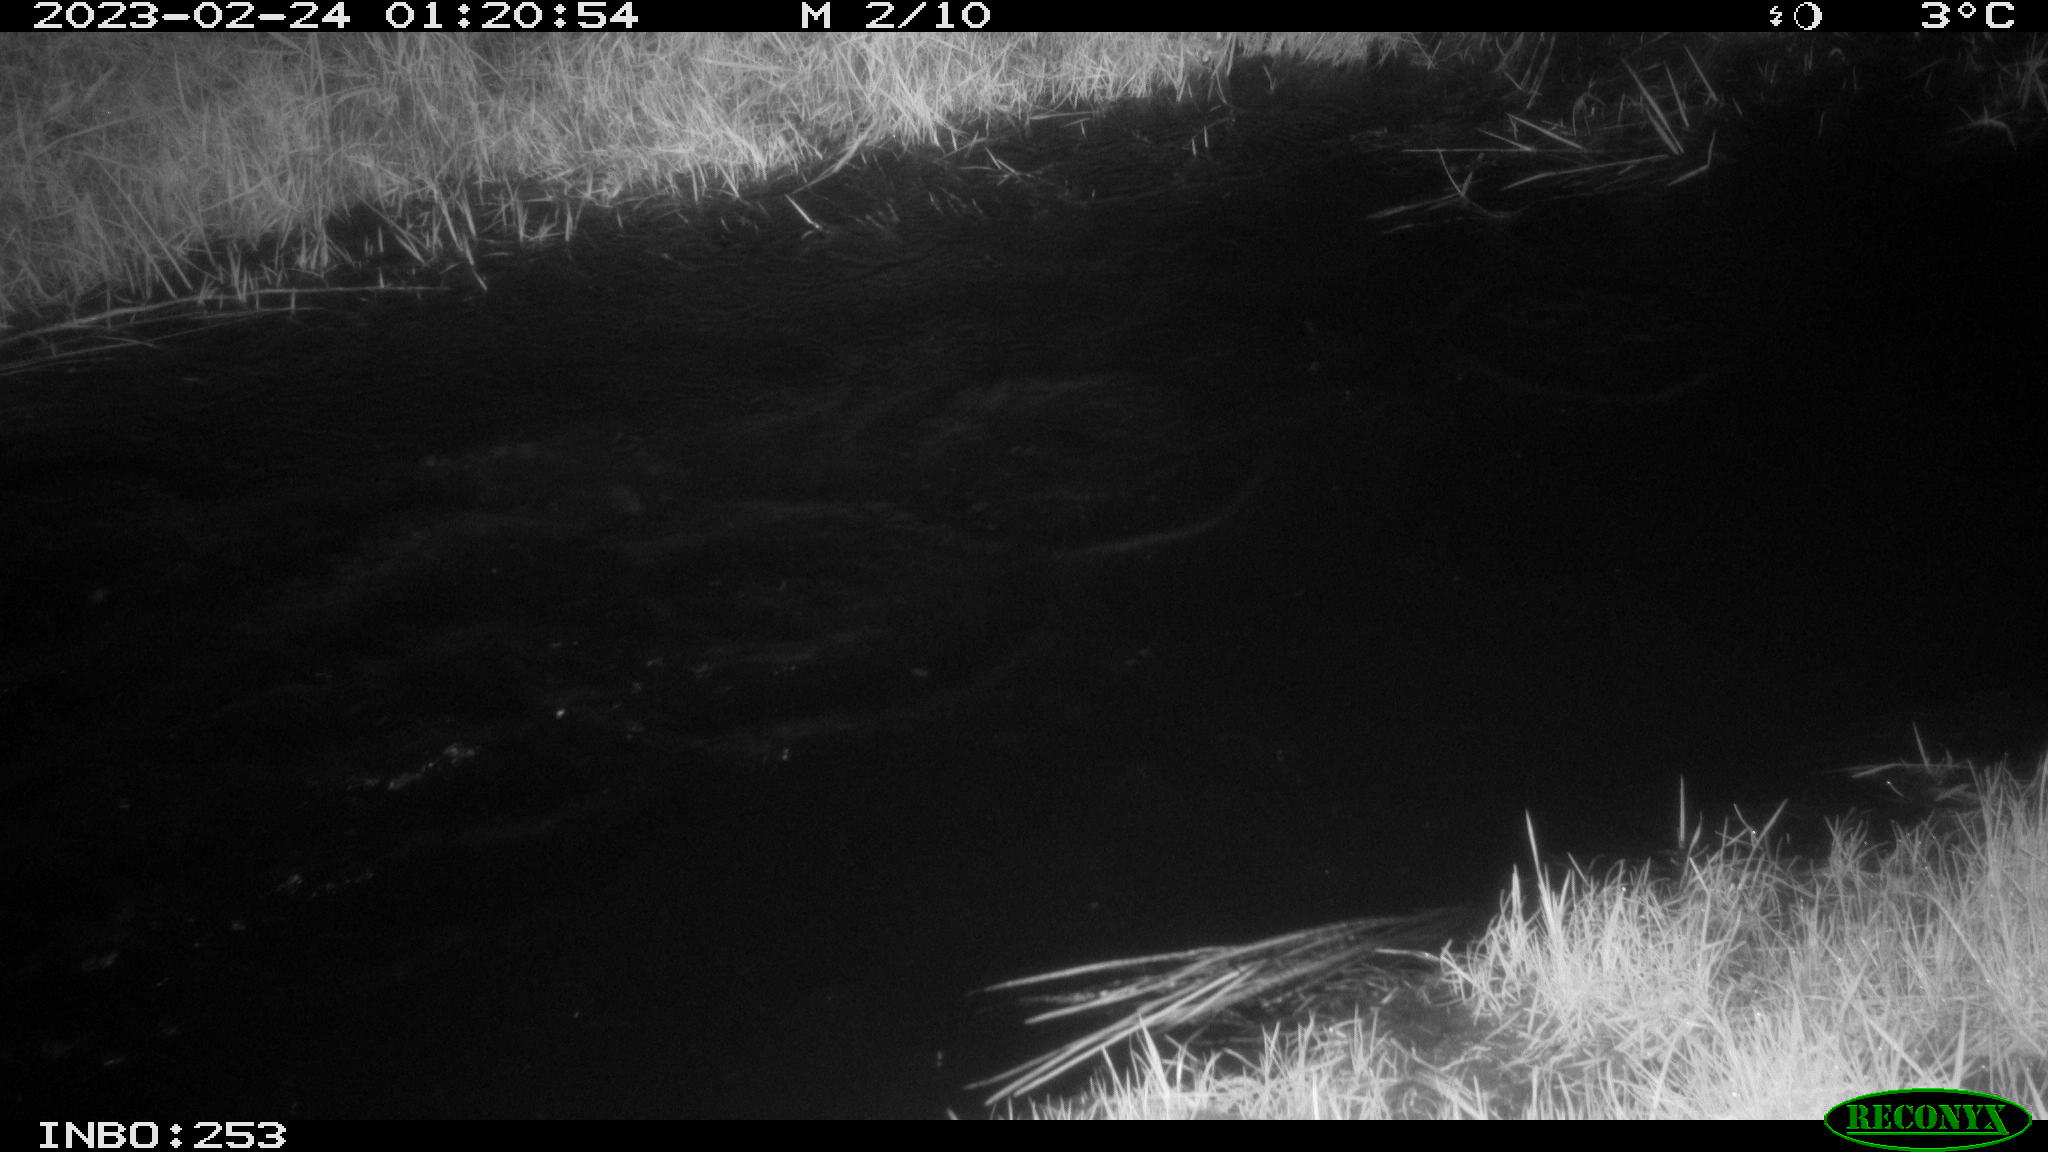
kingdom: Animalia
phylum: Chordata
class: Mammalia
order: Rodentia
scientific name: Rodentia
